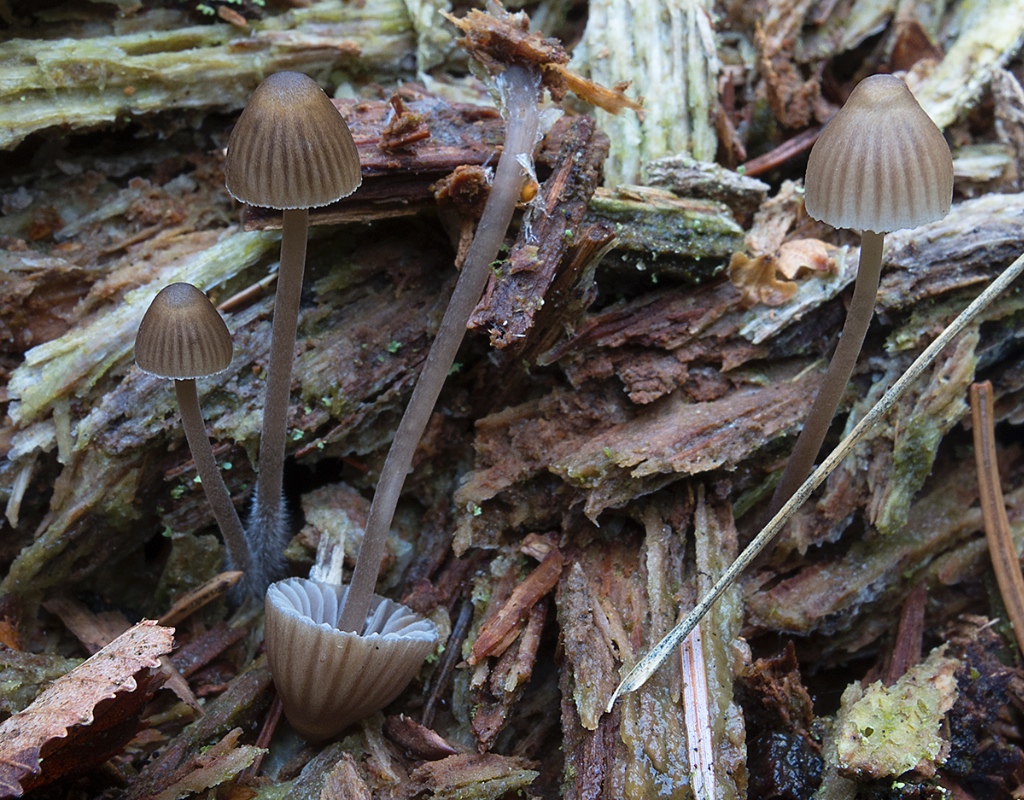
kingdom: Fungi
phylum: Basidiomycota
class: Agaricomycetes
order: Agaricales
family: Mycenaceae
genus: Mycena
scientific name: Mycena stipata
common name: stinkende huesvamp
